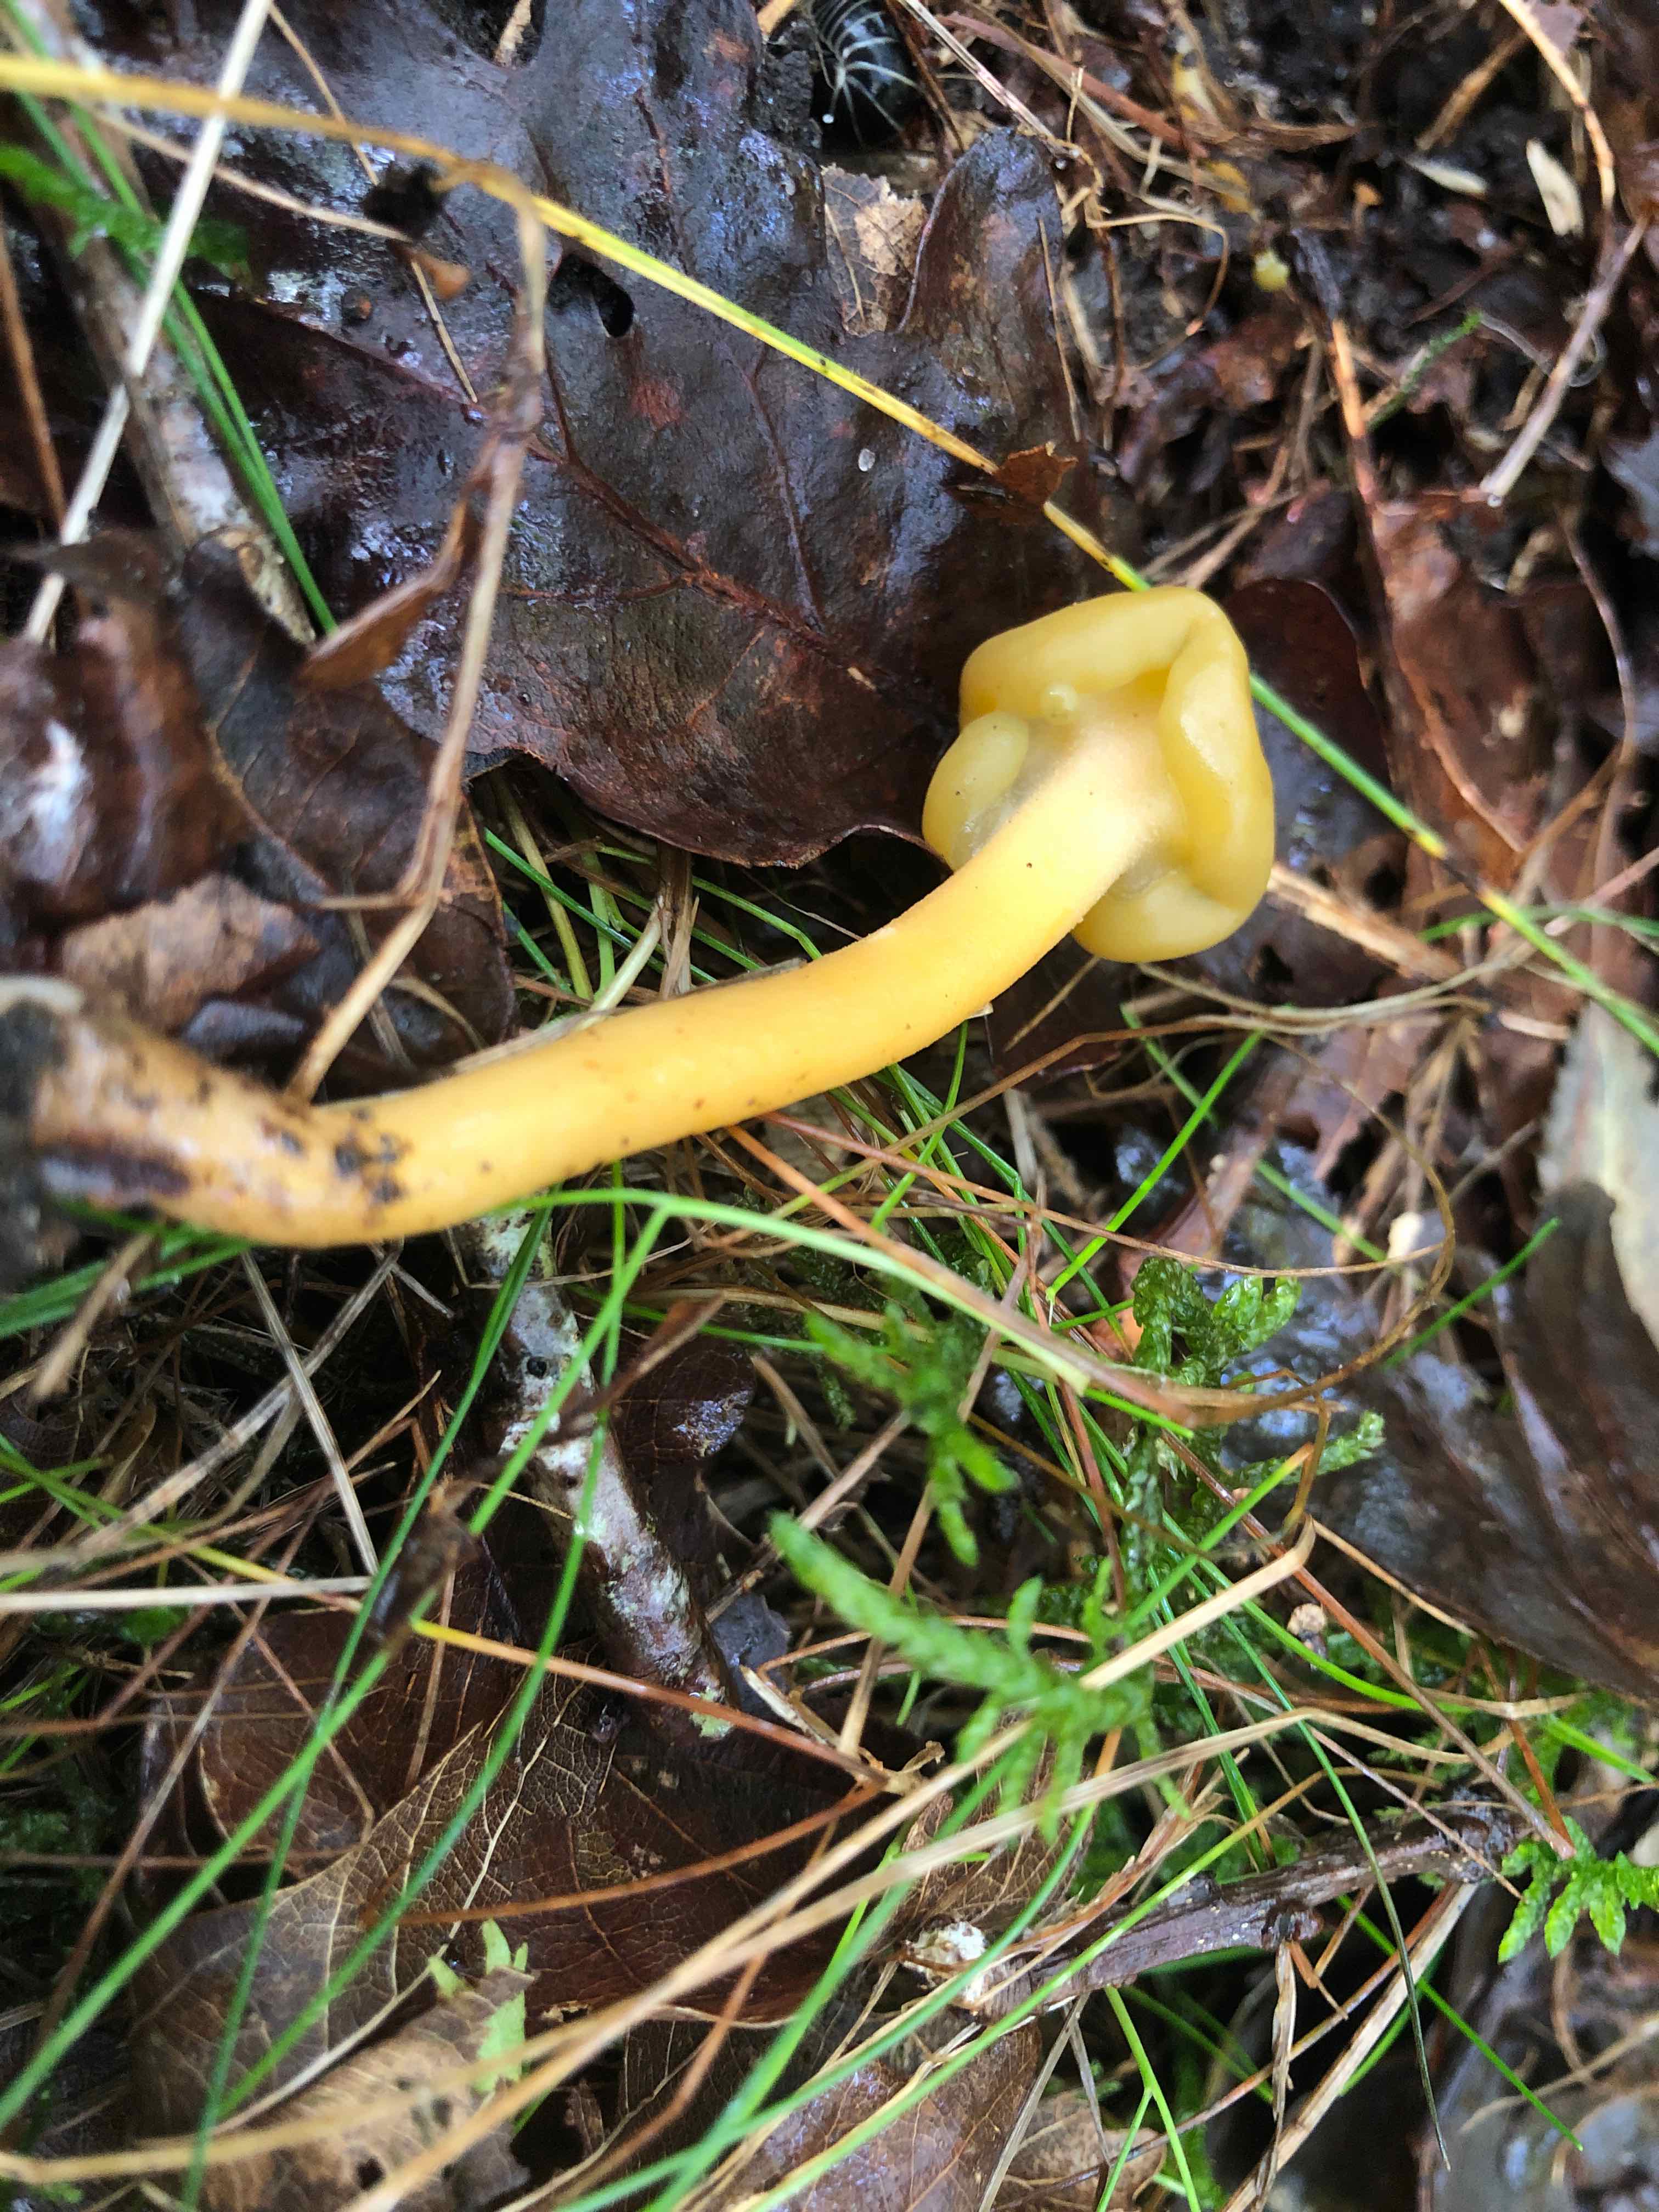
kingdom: Fungi
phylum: Ascomycota
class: Leotiomycetes
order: Leotiales
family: Leotiaceae
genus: Leotia
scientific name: Leotia lubrica
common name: ravsvamp
